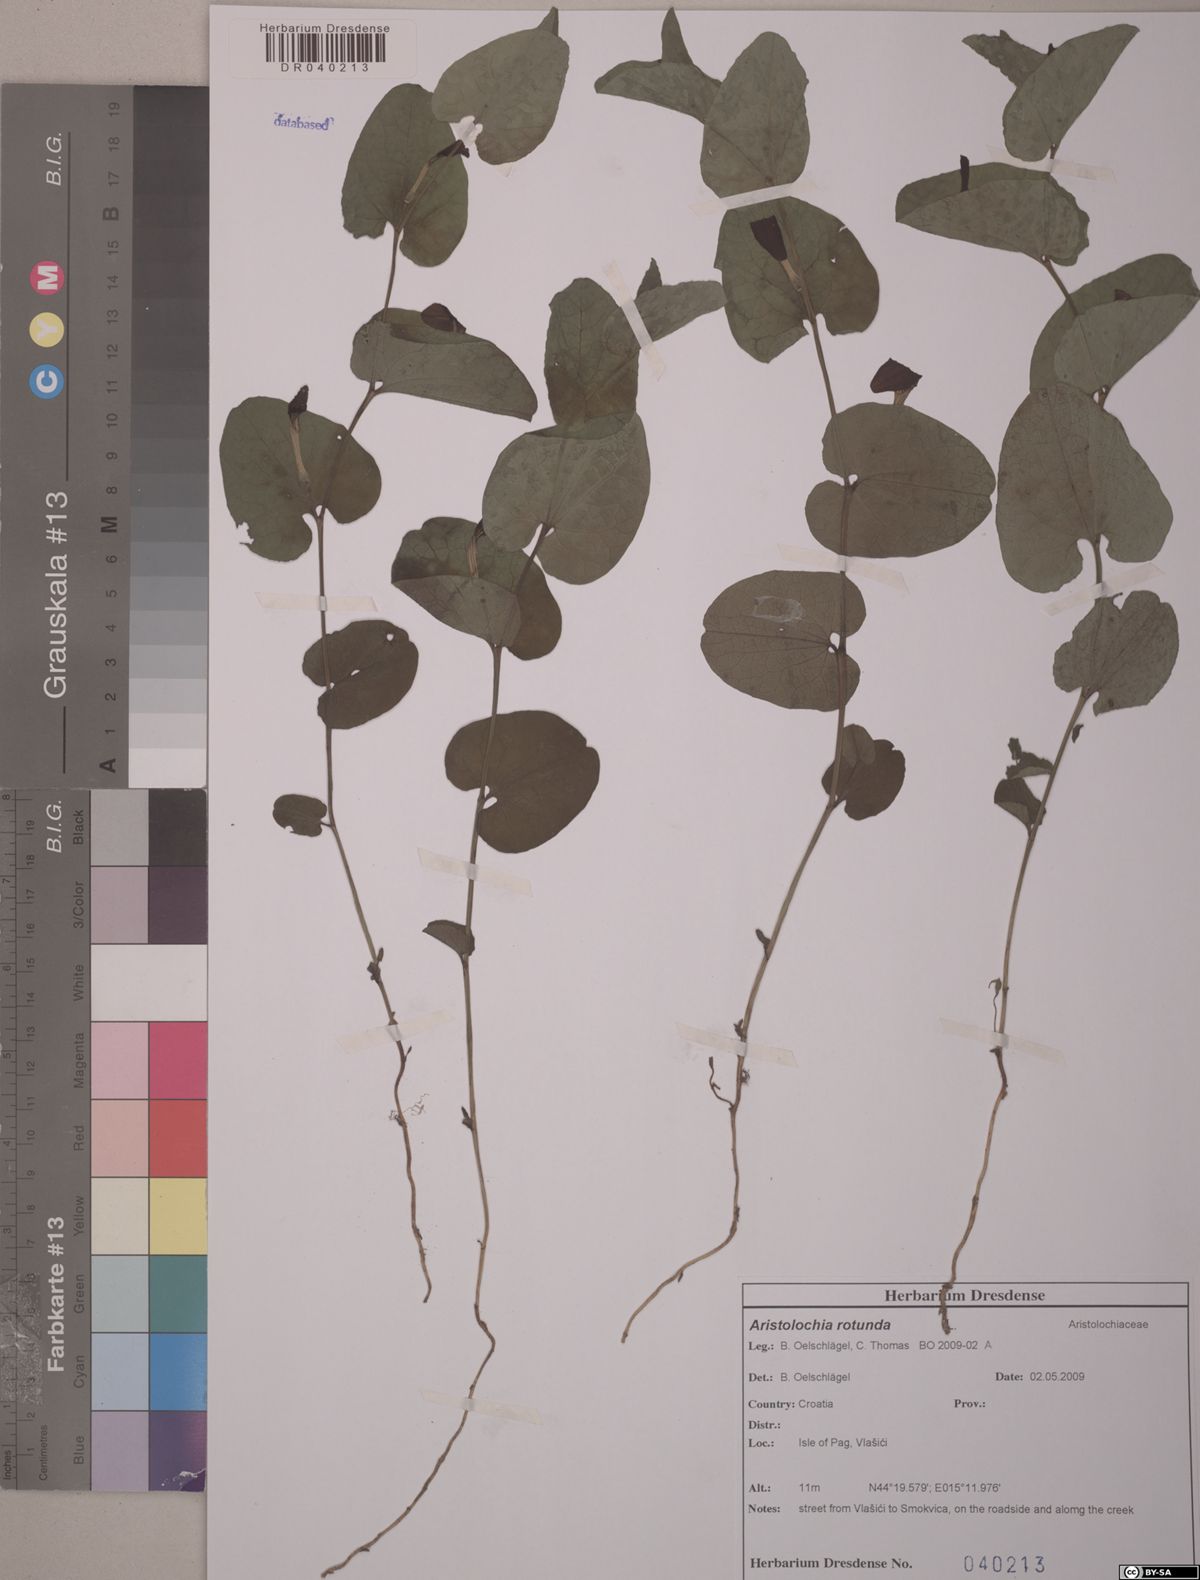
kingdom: Plantae
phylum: Tracheophyta
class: Magnoliopsida
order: Piperales
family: Aristolochiaceae
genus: Aristolochia
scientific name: Aristolochia rotunda
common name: Smearwort
